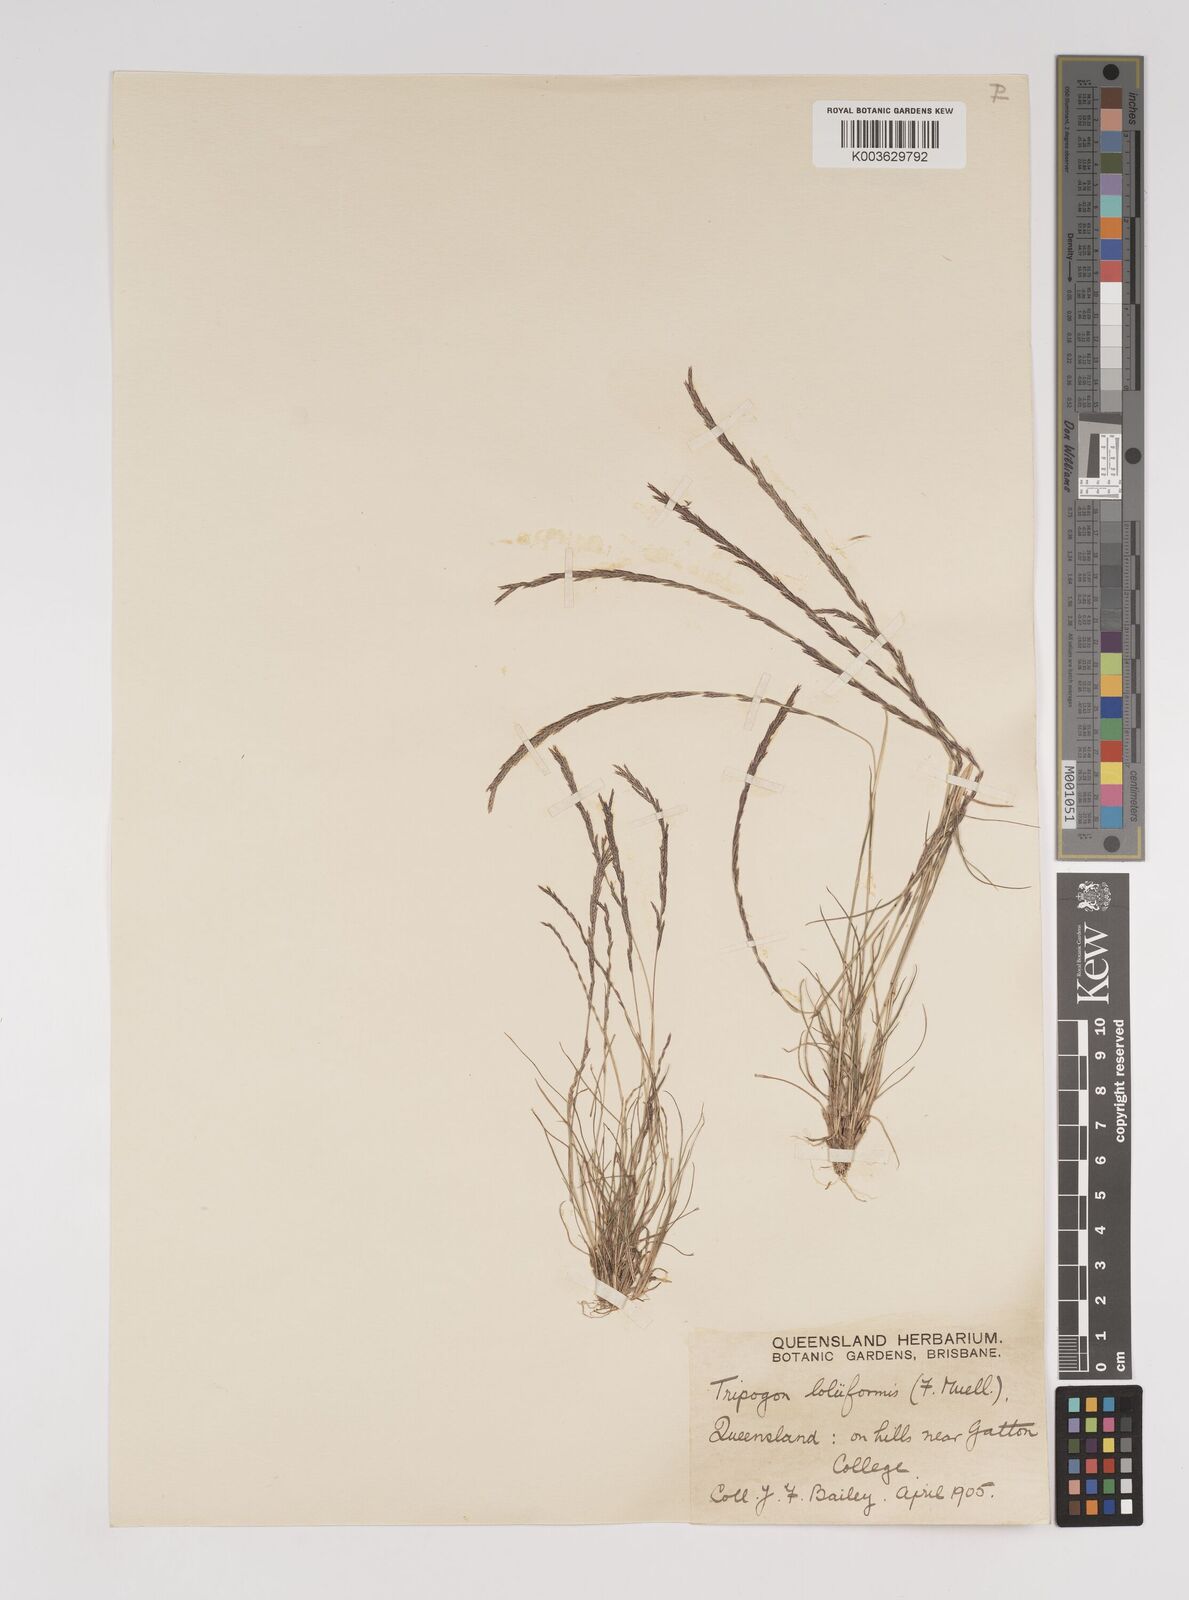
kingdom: Plantae
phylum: Tracheophyta
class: Liliopsida
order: Poales
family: Poaceae
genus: Tripogonella
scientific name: Tripogonella loliiformis
